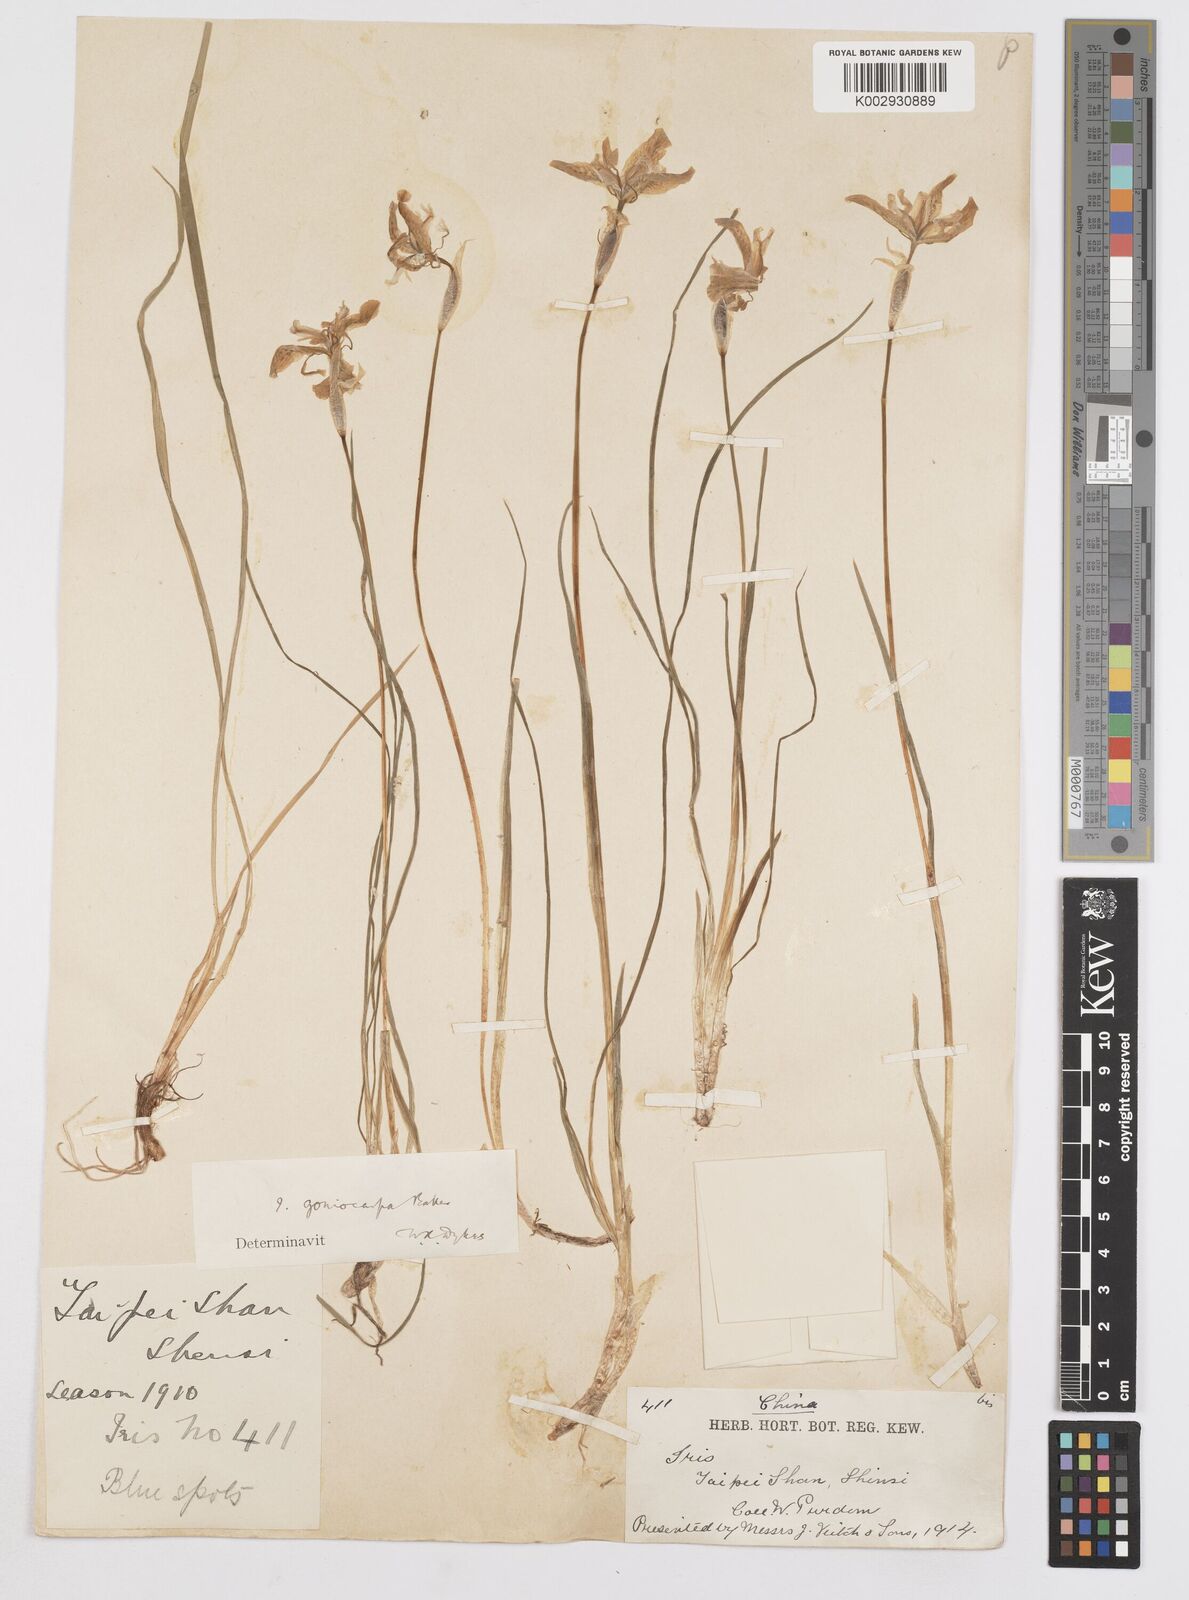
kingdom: Plantae
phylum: Tracheophyta
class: Liliopsida
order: Asparagales
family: Iridaceae
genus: Iris
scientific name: Iris goniocarpa
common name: Angular-fruit iris
